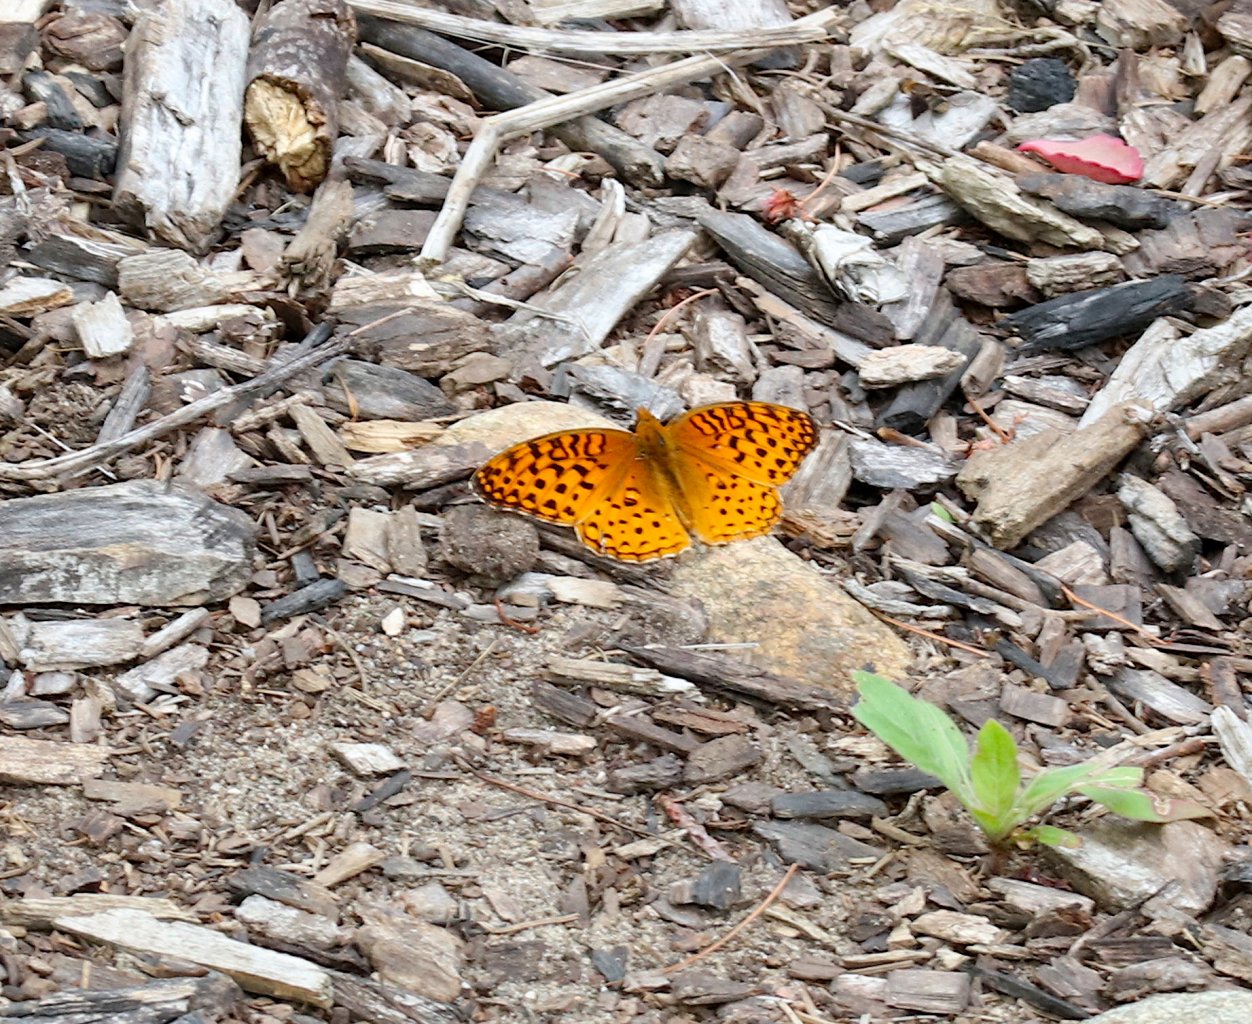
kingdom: Animalia
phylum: Arthropoda
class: Insecta
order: Lepidoptera
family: Nymphalidae
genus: Speyeria
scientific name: Speyeria aphrodite
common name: Aphrodite Fritillary
